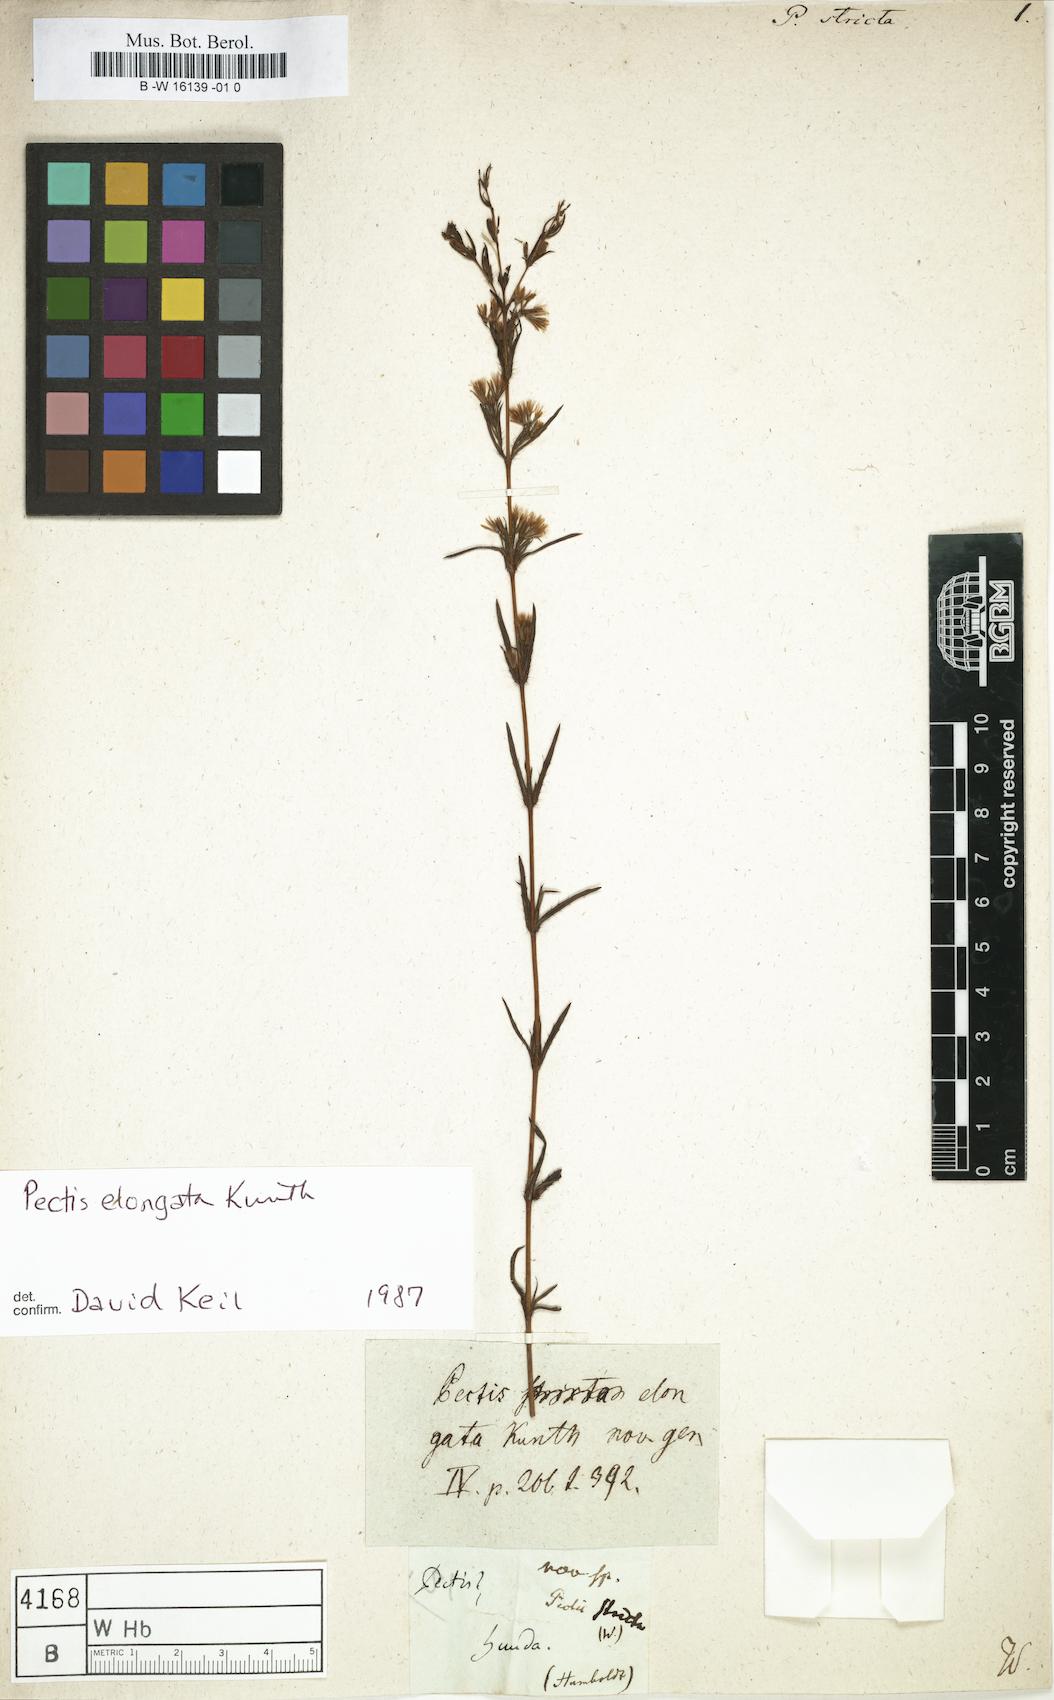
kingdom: Plantae
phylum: Tracheophyta
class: Magnoliopsida
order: Asterales
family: Asteraceae
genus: Pectis
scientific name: Pectis elongata
